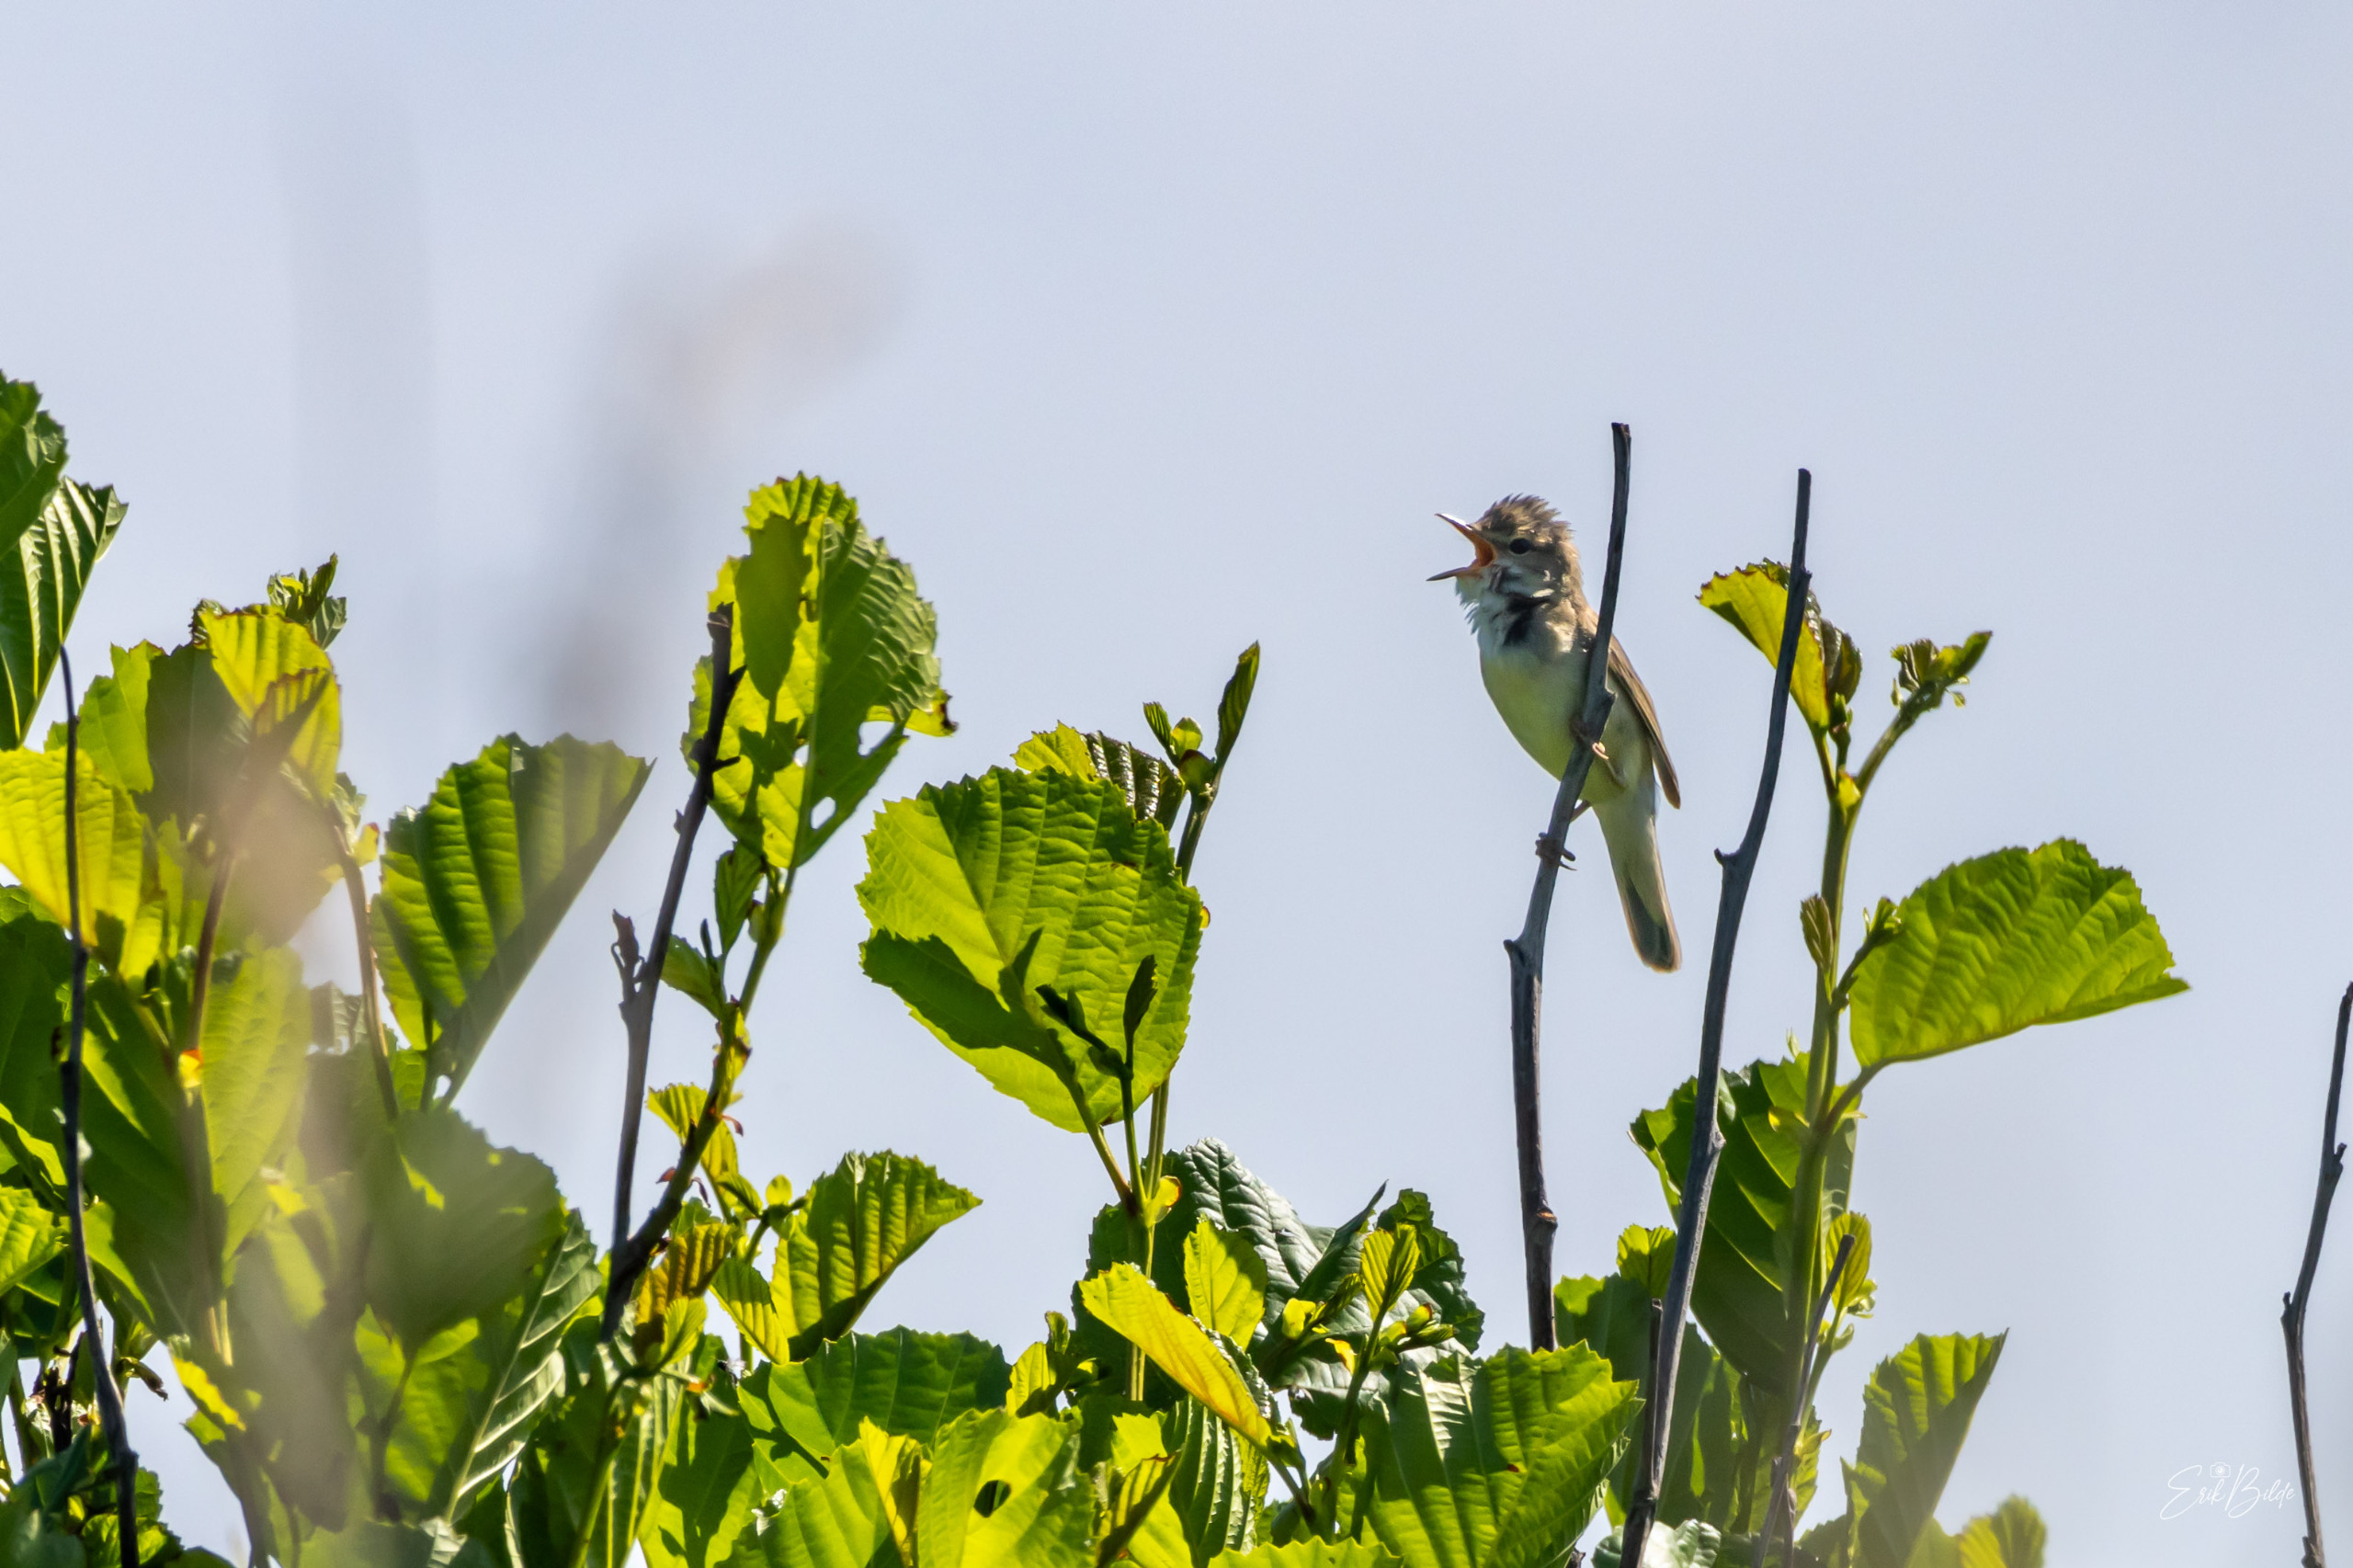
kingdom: Animalia
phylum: Chordata
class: Aves
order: Passeriformes
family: Acrocephalidae
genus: Hippolais
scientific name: Hippolais icterina
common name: Gulbug
